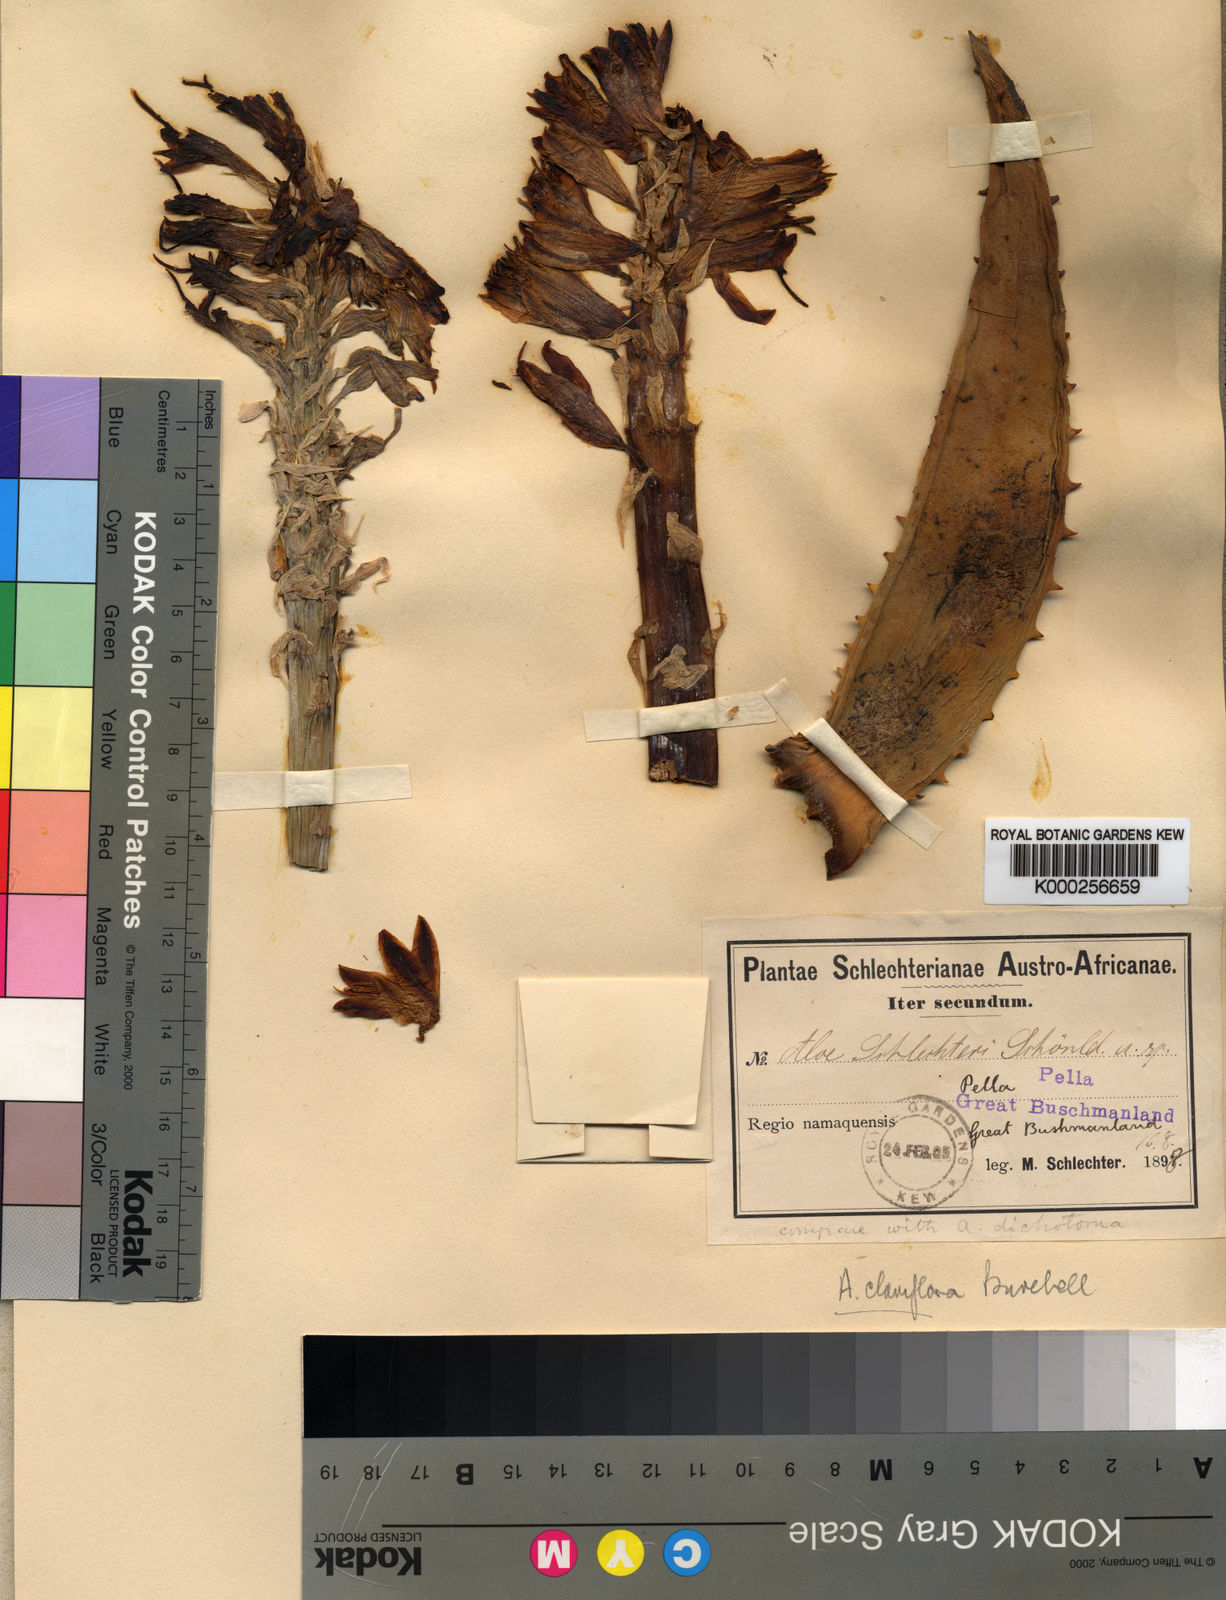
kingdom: Plantae
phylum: Tracheophyta
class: Liliopsida
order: Asparagales
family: Asphodelaceae
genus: Aloe
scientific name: Aloe claviflora
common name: Cannon aloe
